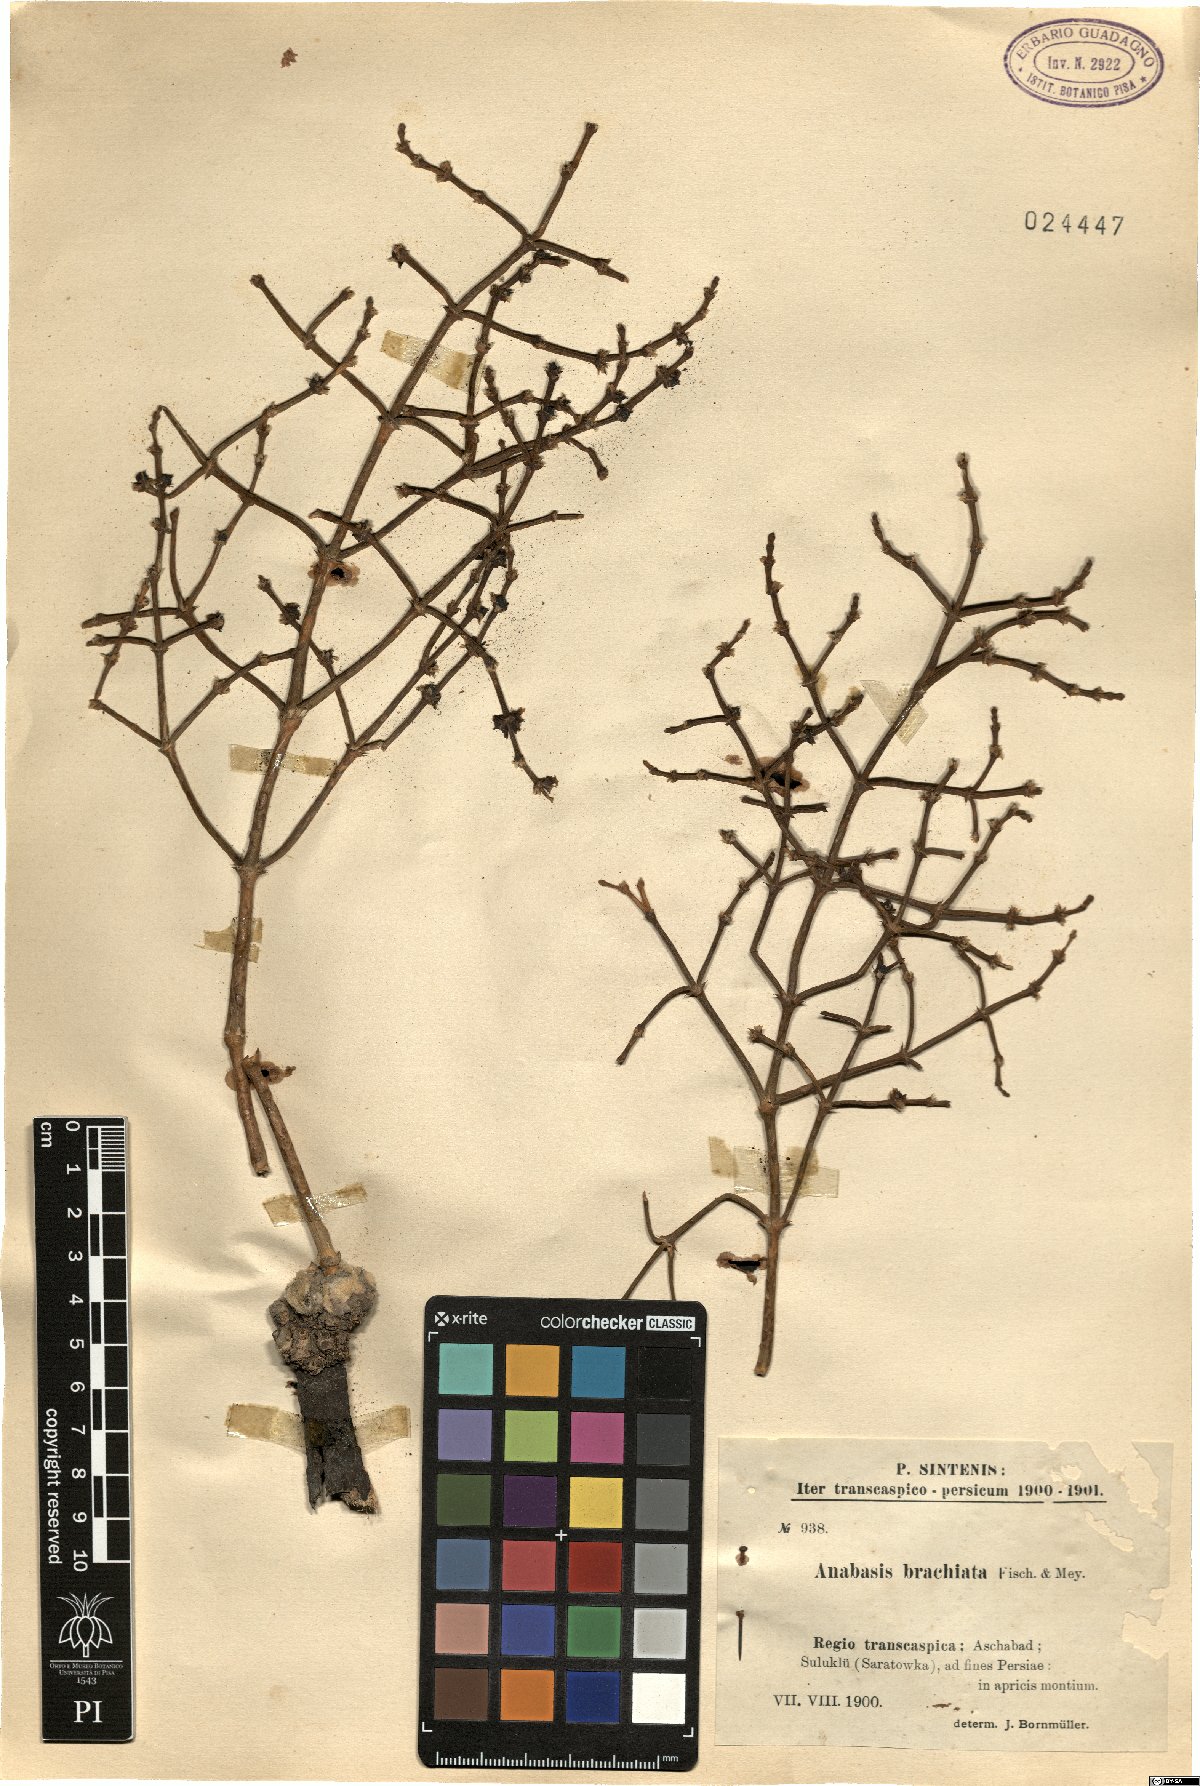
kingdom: Plantae
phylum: Tracheophyta
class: Magnoliopsida
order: Caryophyllales
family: Amaranthaceae
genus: Anabasis
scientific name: Anabasis brachiata
